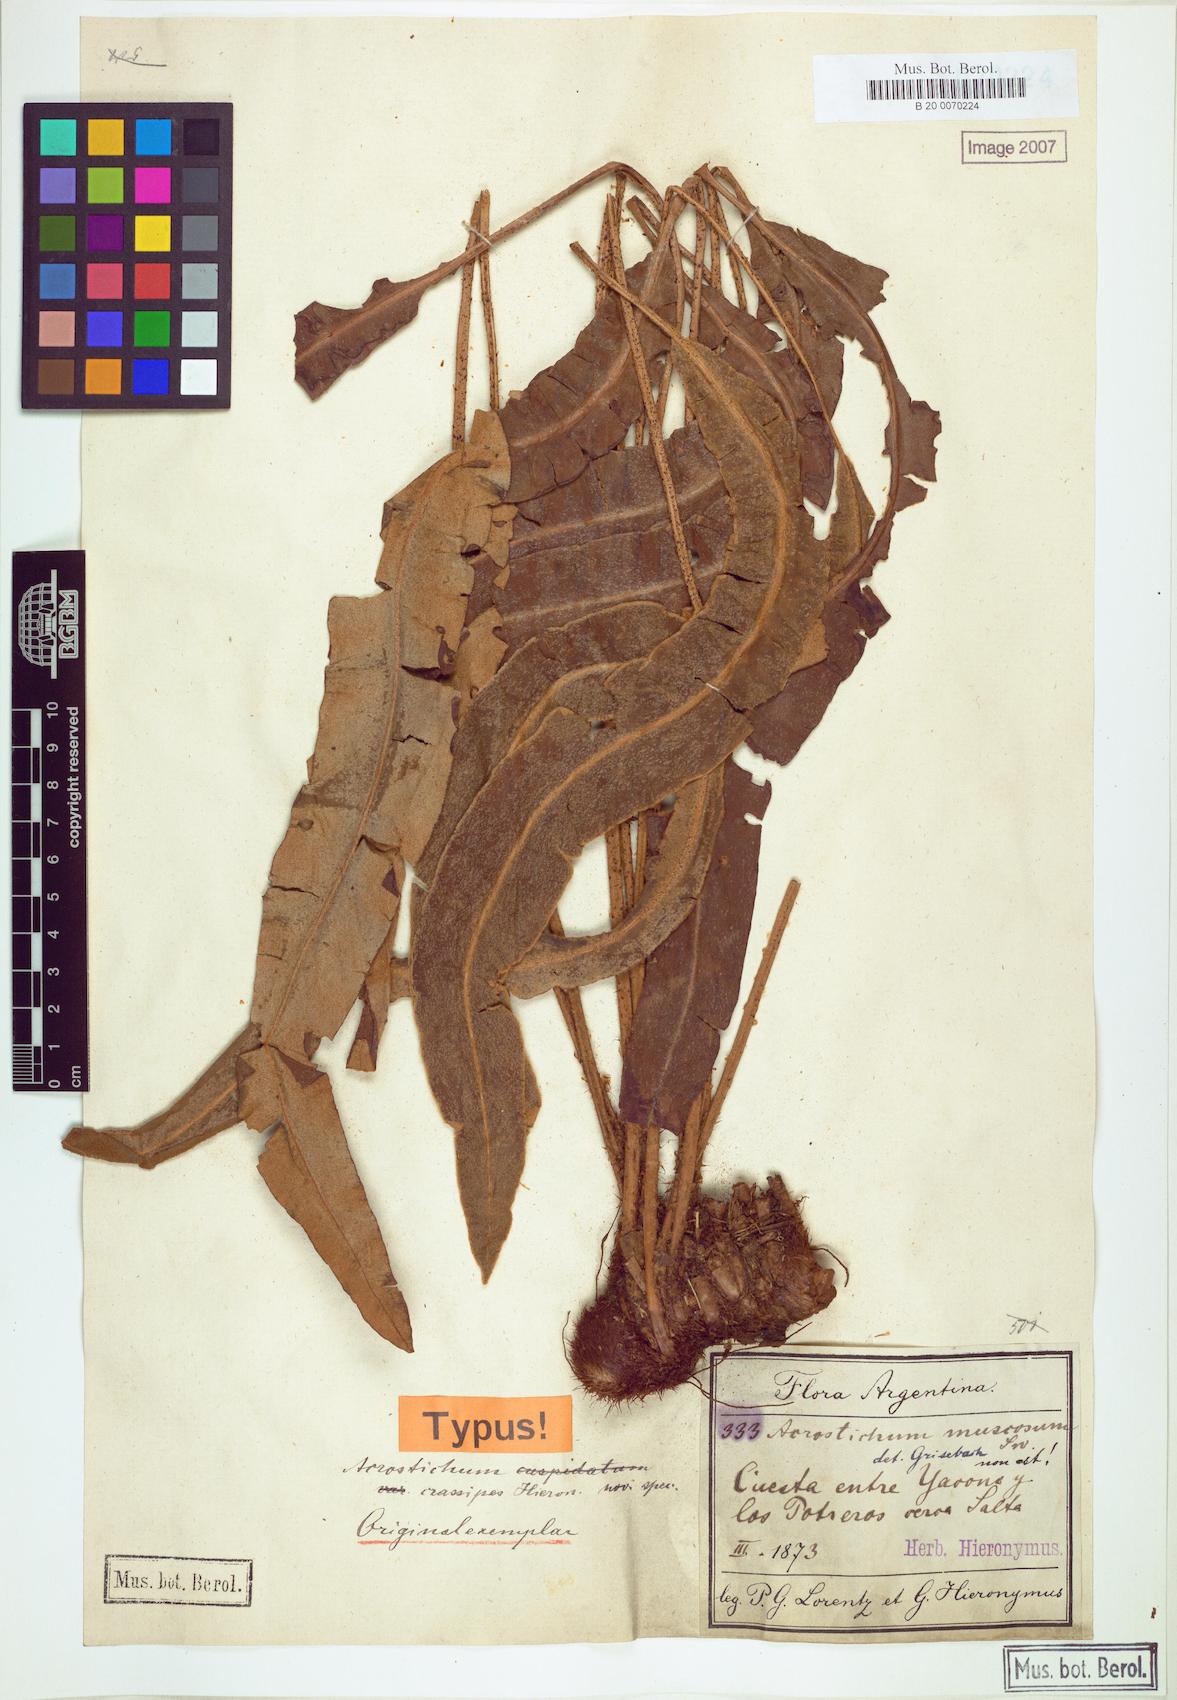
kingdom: Plantae
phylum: Tracheophyta
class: Polypodiopsida
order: Polypodiales
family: Dryopteridaceae
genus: Elaphoglossum
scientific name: Elaphoglossum crassipes
